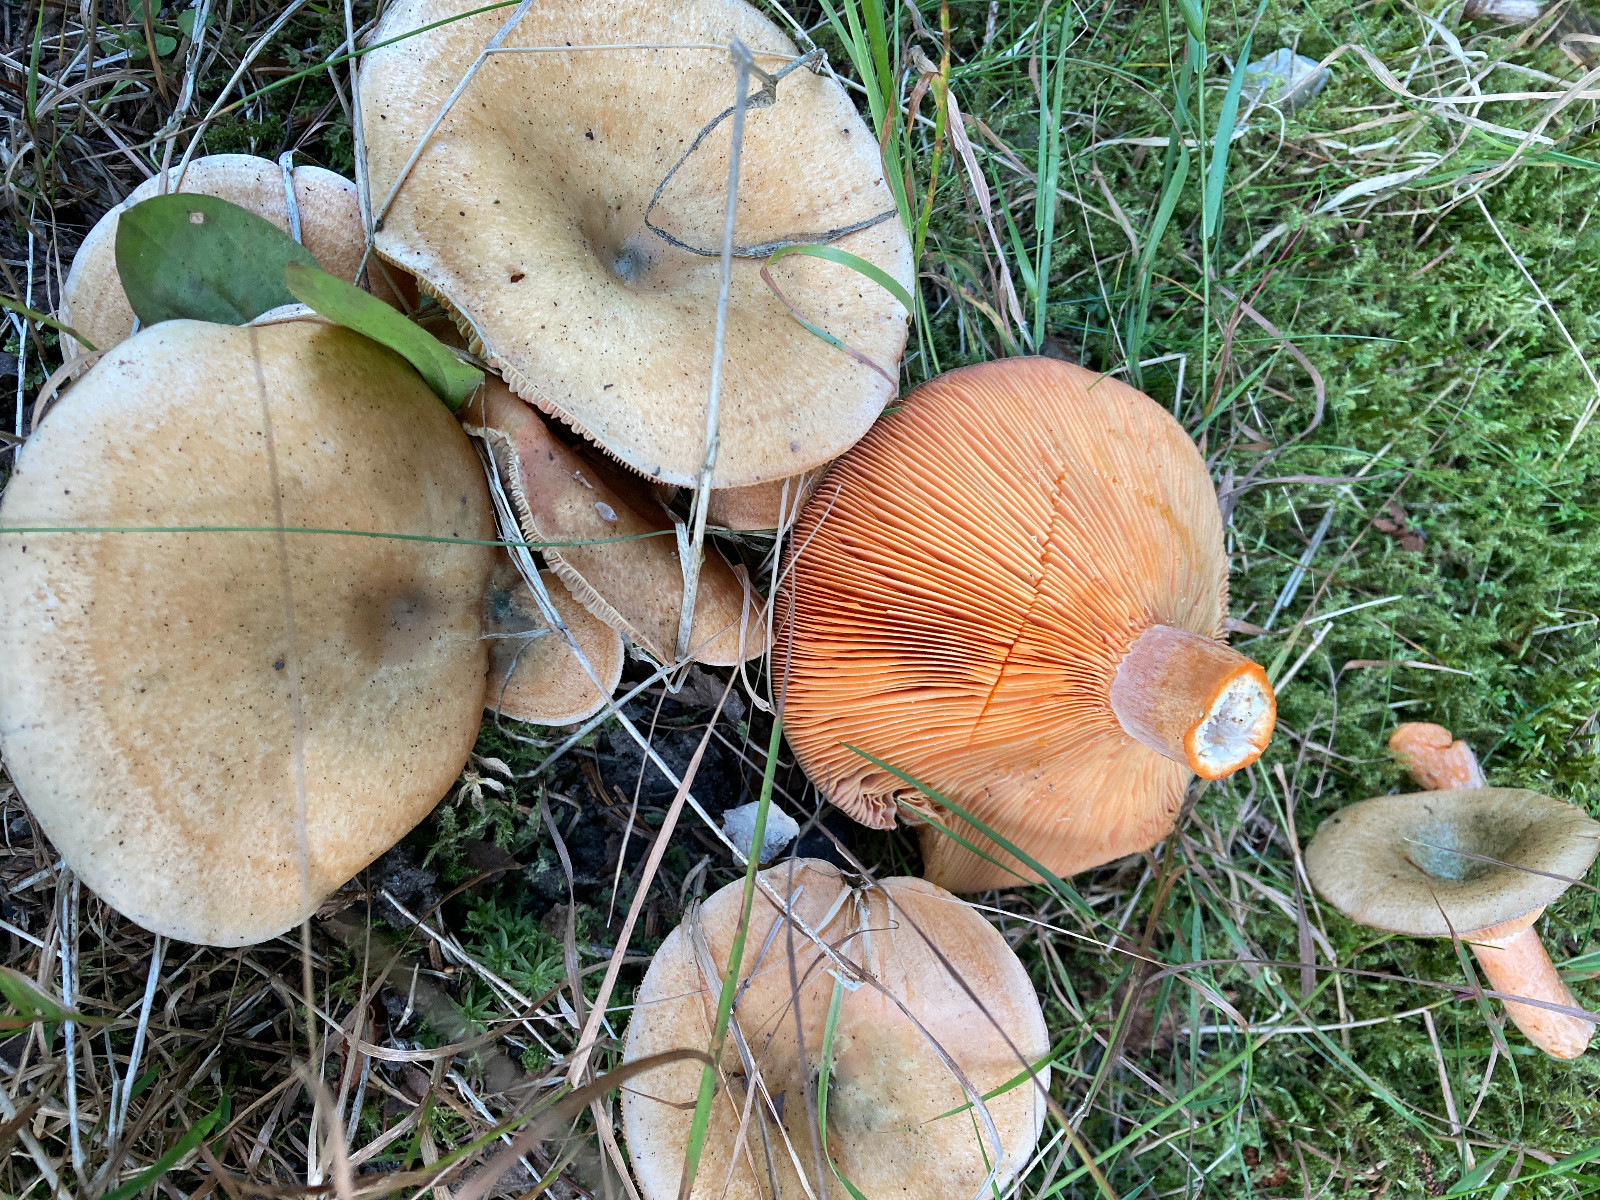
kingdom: Fungi
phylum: Basidiomycota
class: Agaricomycetes
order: Russulales
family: Russulaceae
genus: Lactarius
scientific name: Lactarius deterrimus
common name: gran-mælkehat
